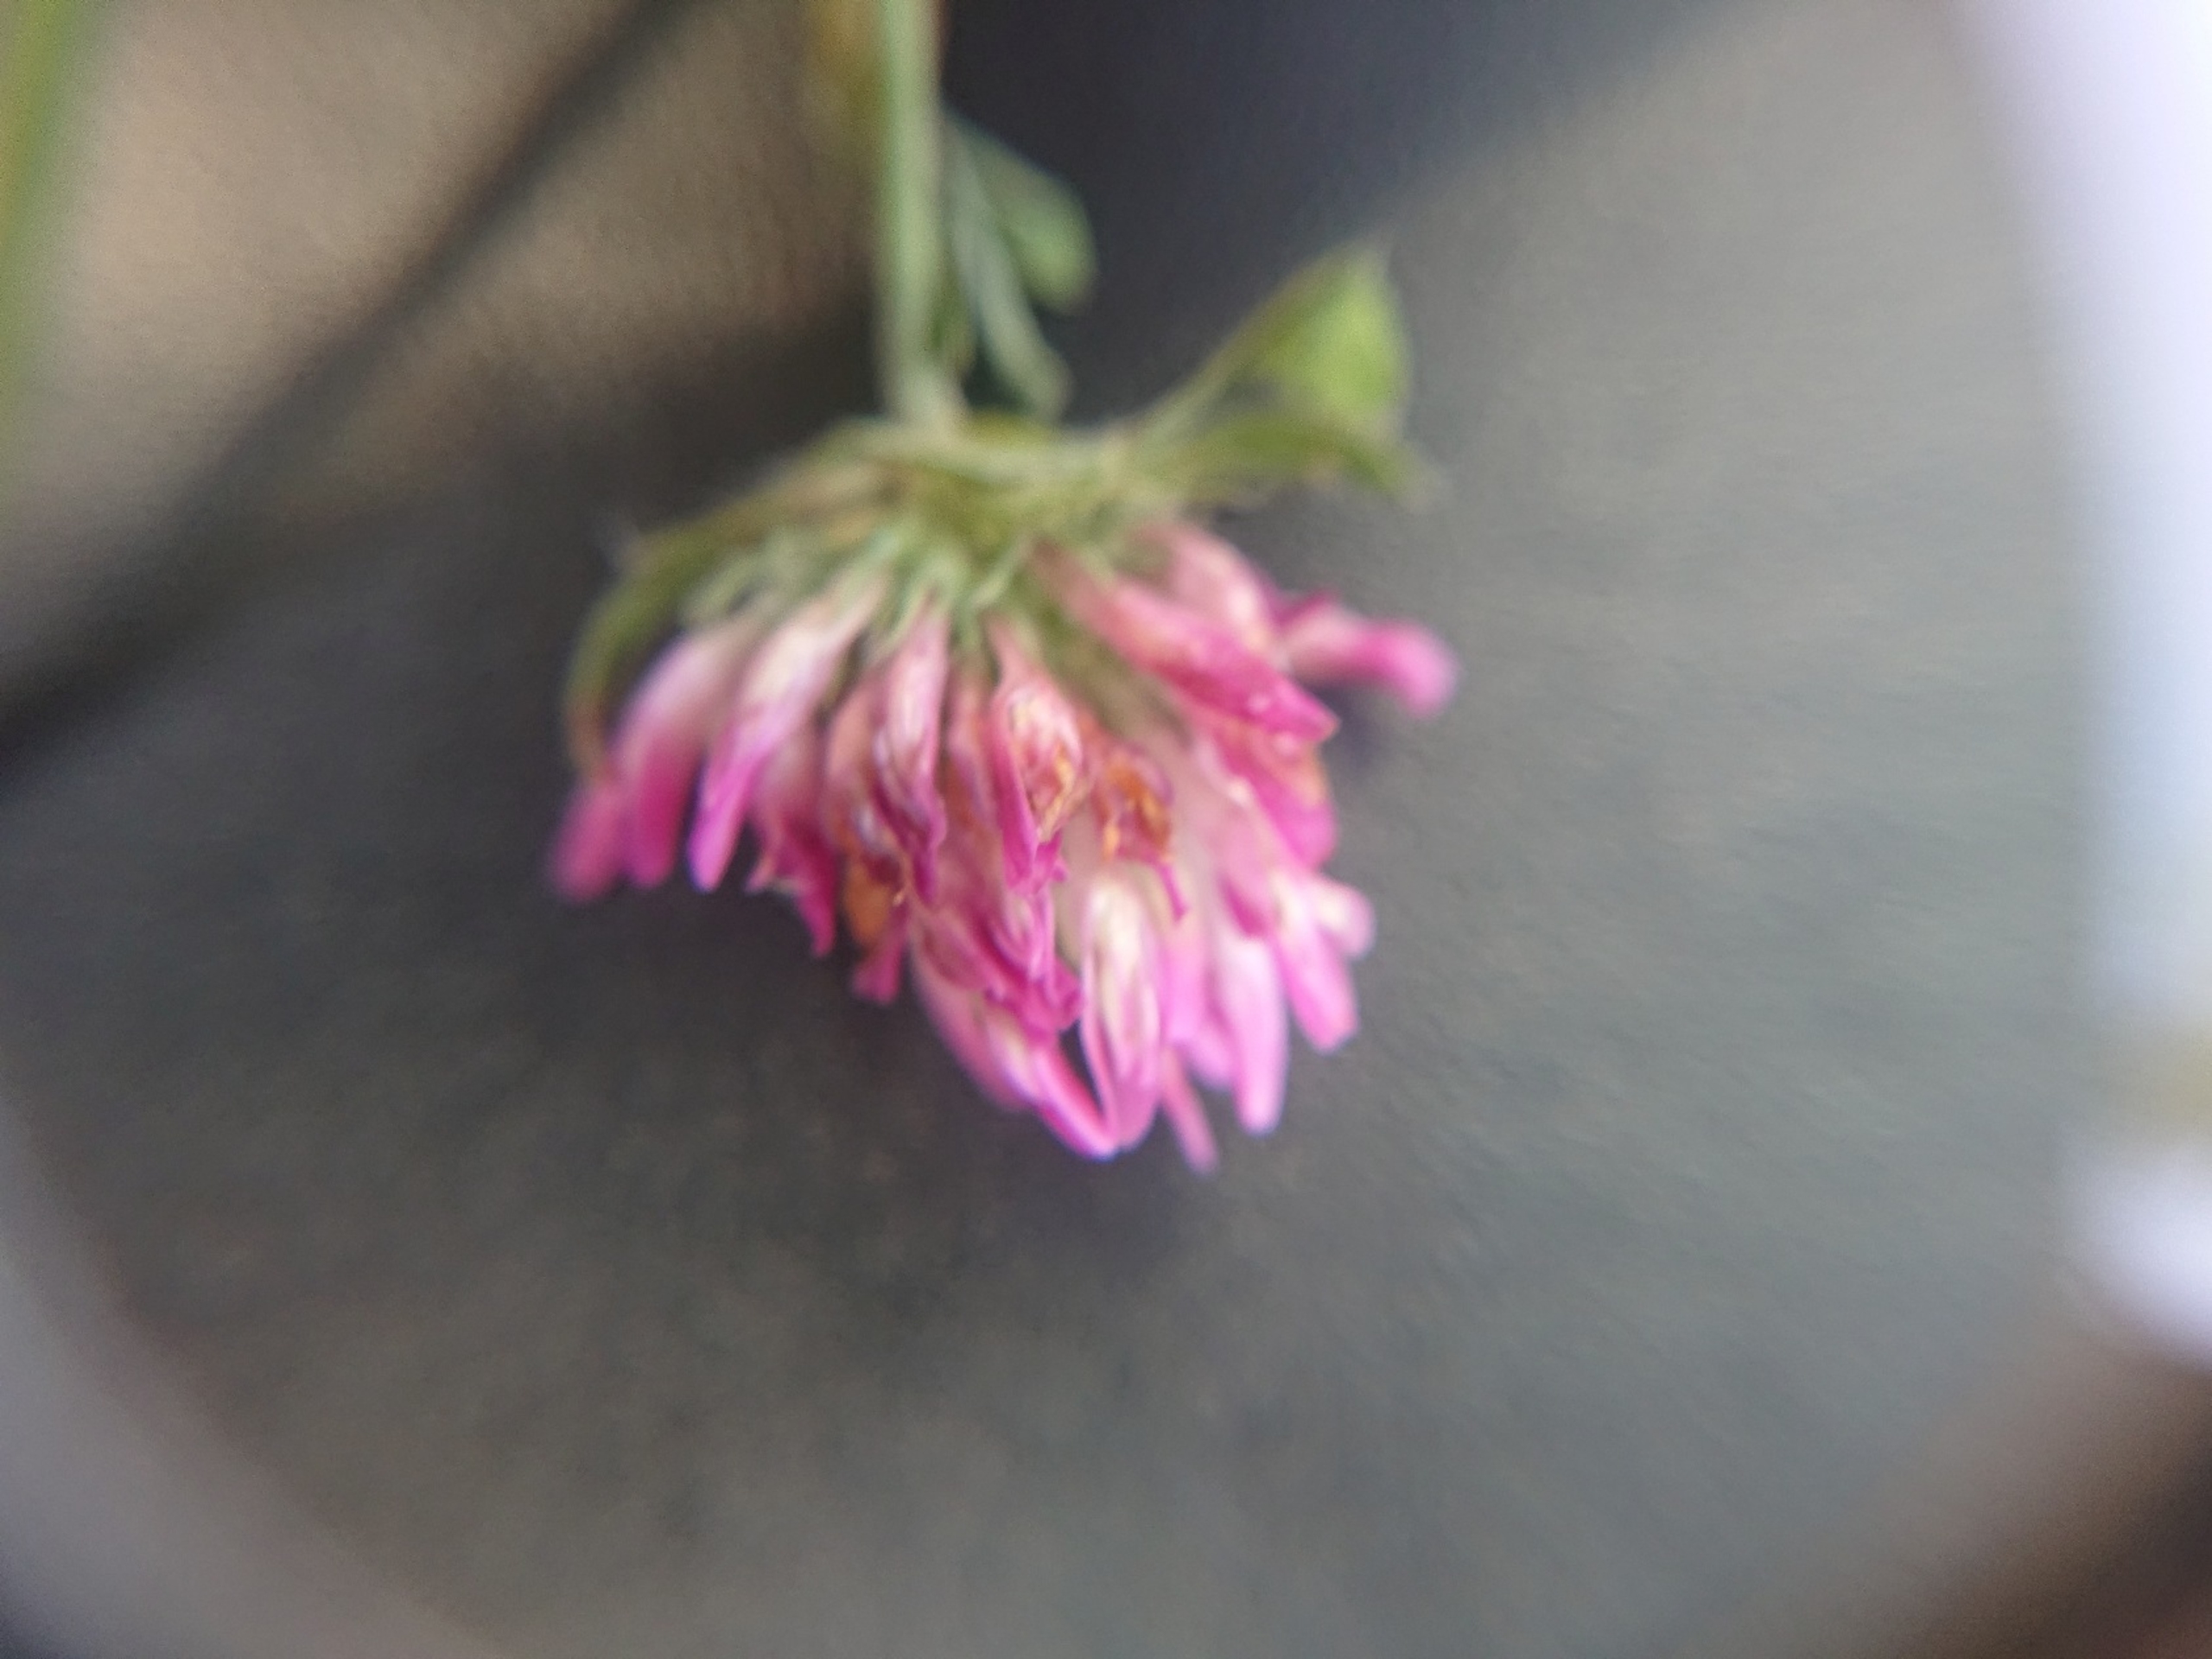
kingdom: Plantae
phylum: Tracheophyta
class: Magnoliopsida
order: Fabales
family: Fabaceae
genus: Trifolium
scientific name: Trifolium pratense
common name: Rød-kløver
